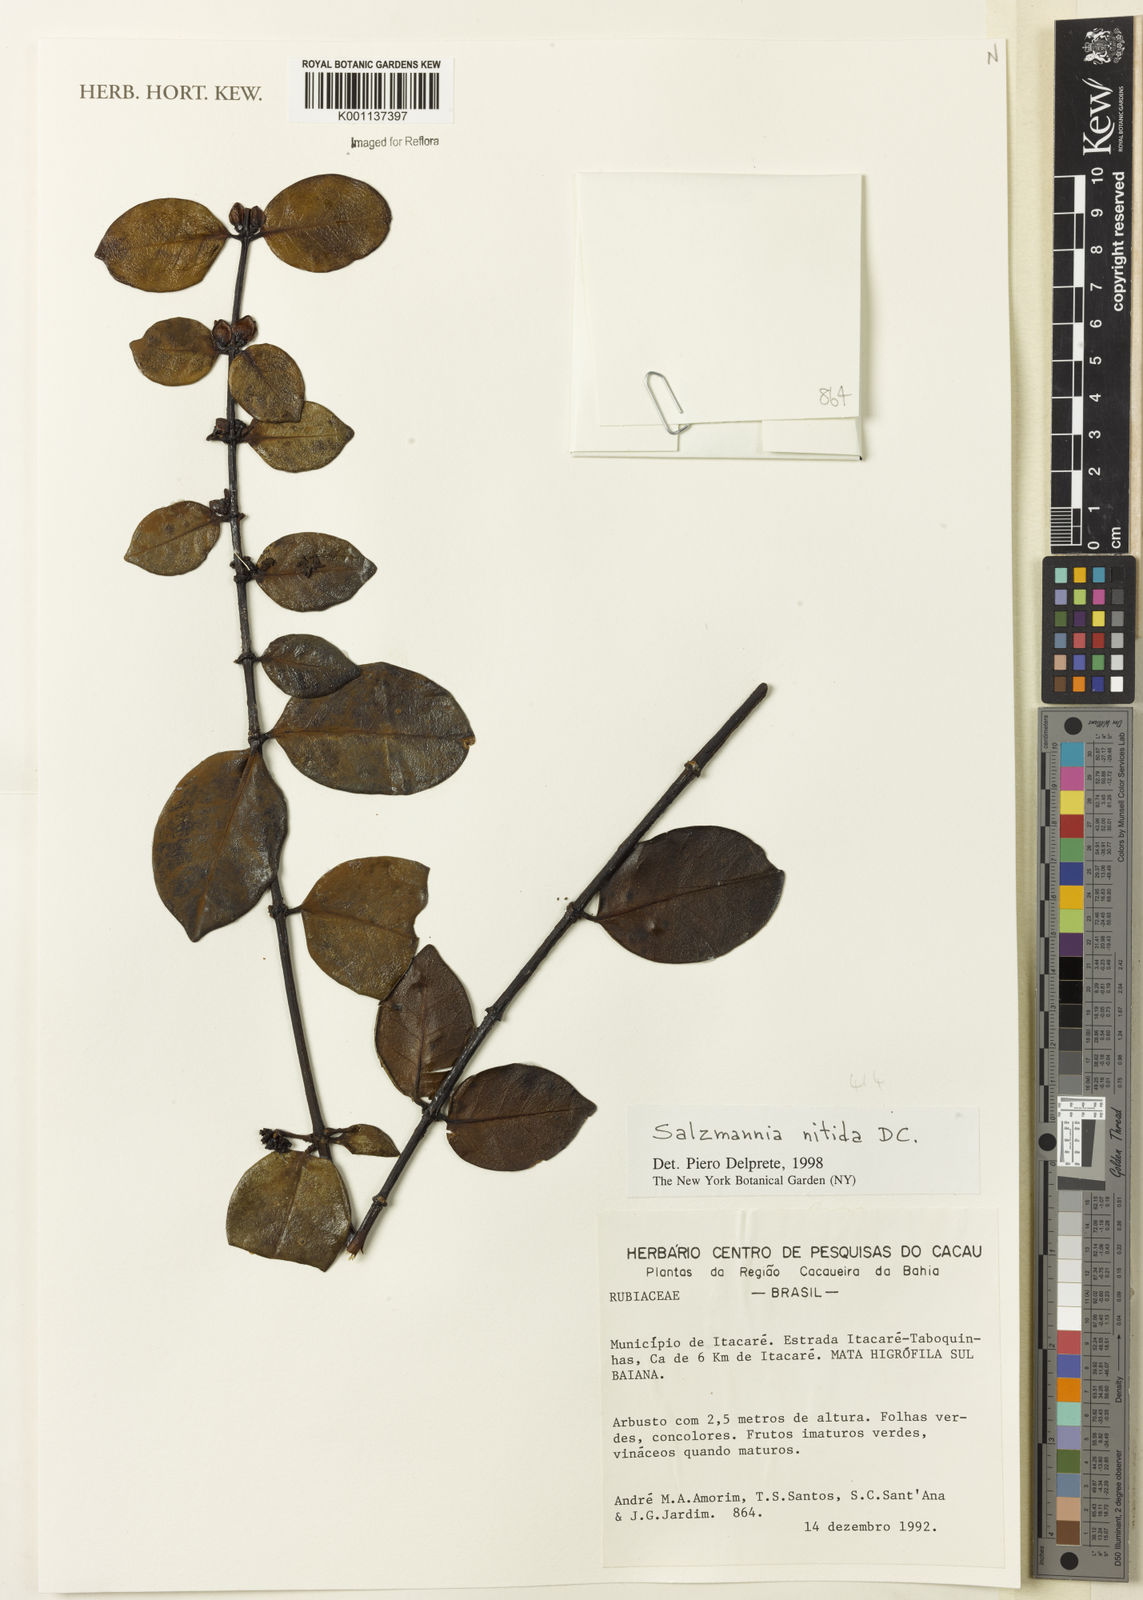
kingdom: Plantae
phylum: Tracheophyta
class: Magnoliopsida
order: Gentianales
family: Rubiaceae
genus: Salzmannia
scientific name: Salzmannia nitida
